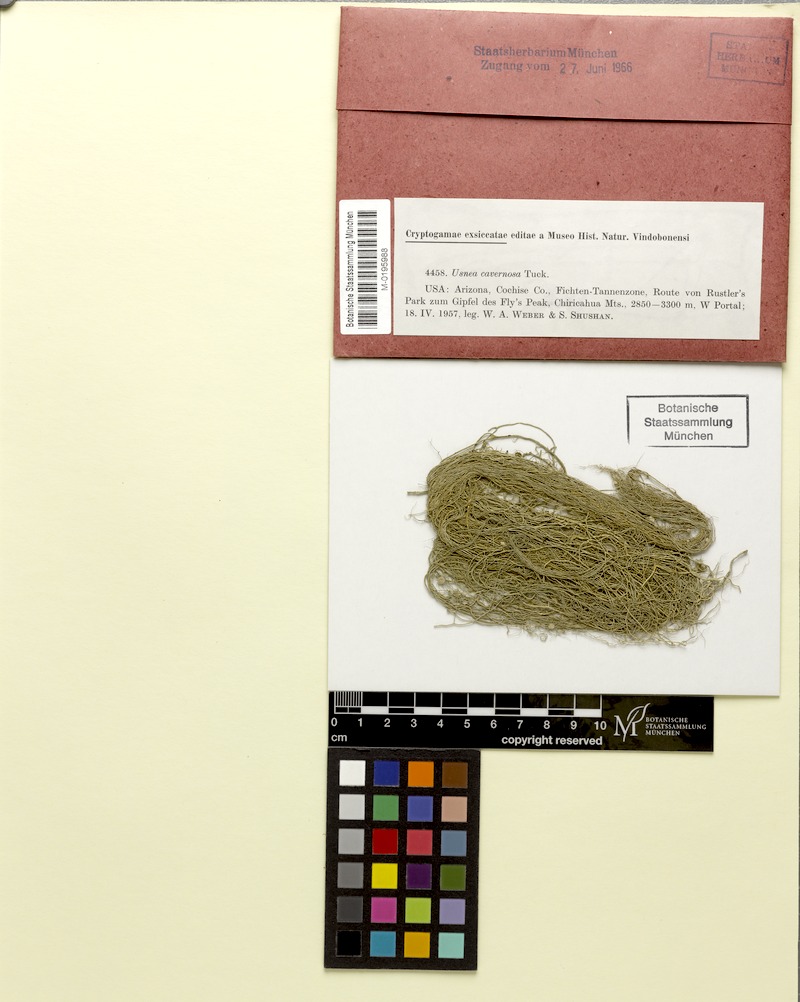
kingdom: Fungi
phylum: Ascomycota
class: Lecanoromycetes
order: Lecanorales
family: Parmeliaceae
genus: Usnea
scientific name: Usnea cavernosa
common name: Pitted beard lichen
